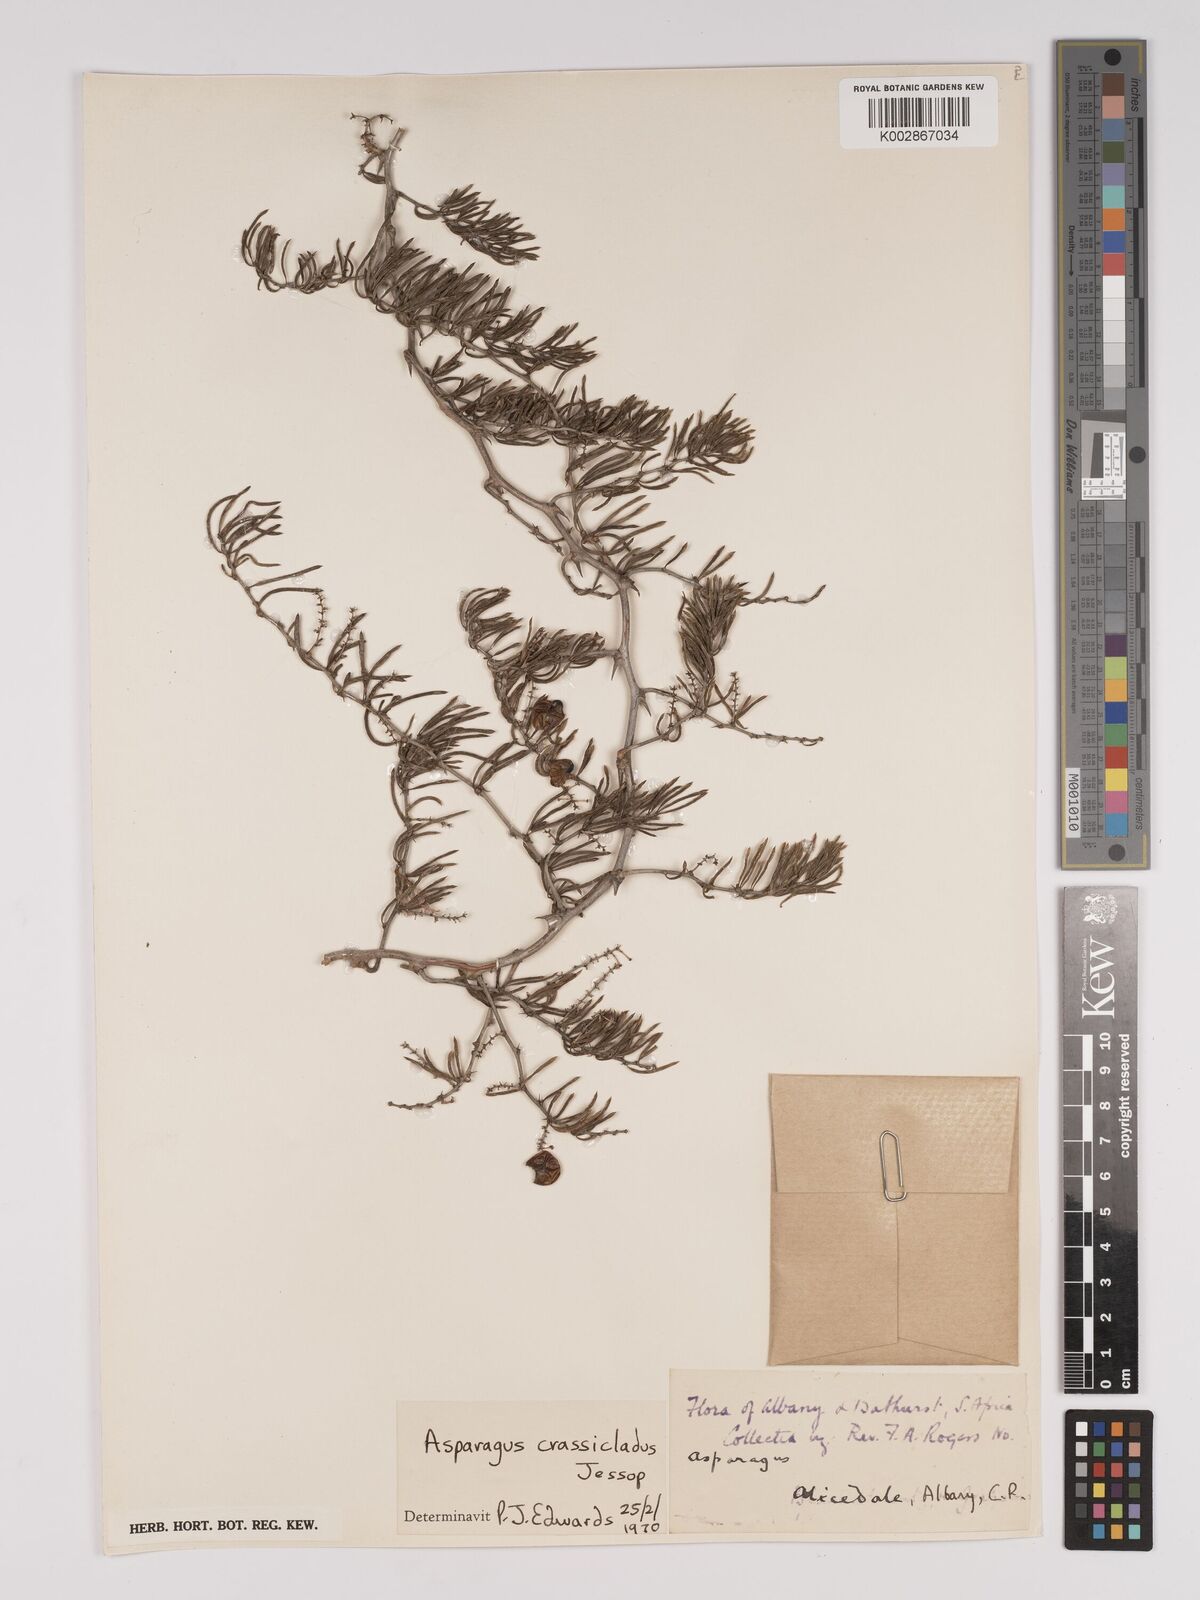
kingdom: Plantae
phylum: Tracheophyta
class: Liliopsida
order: Asparagales
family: Asparagaceae
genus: Asparagus
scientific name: Asparagus crassicladus
